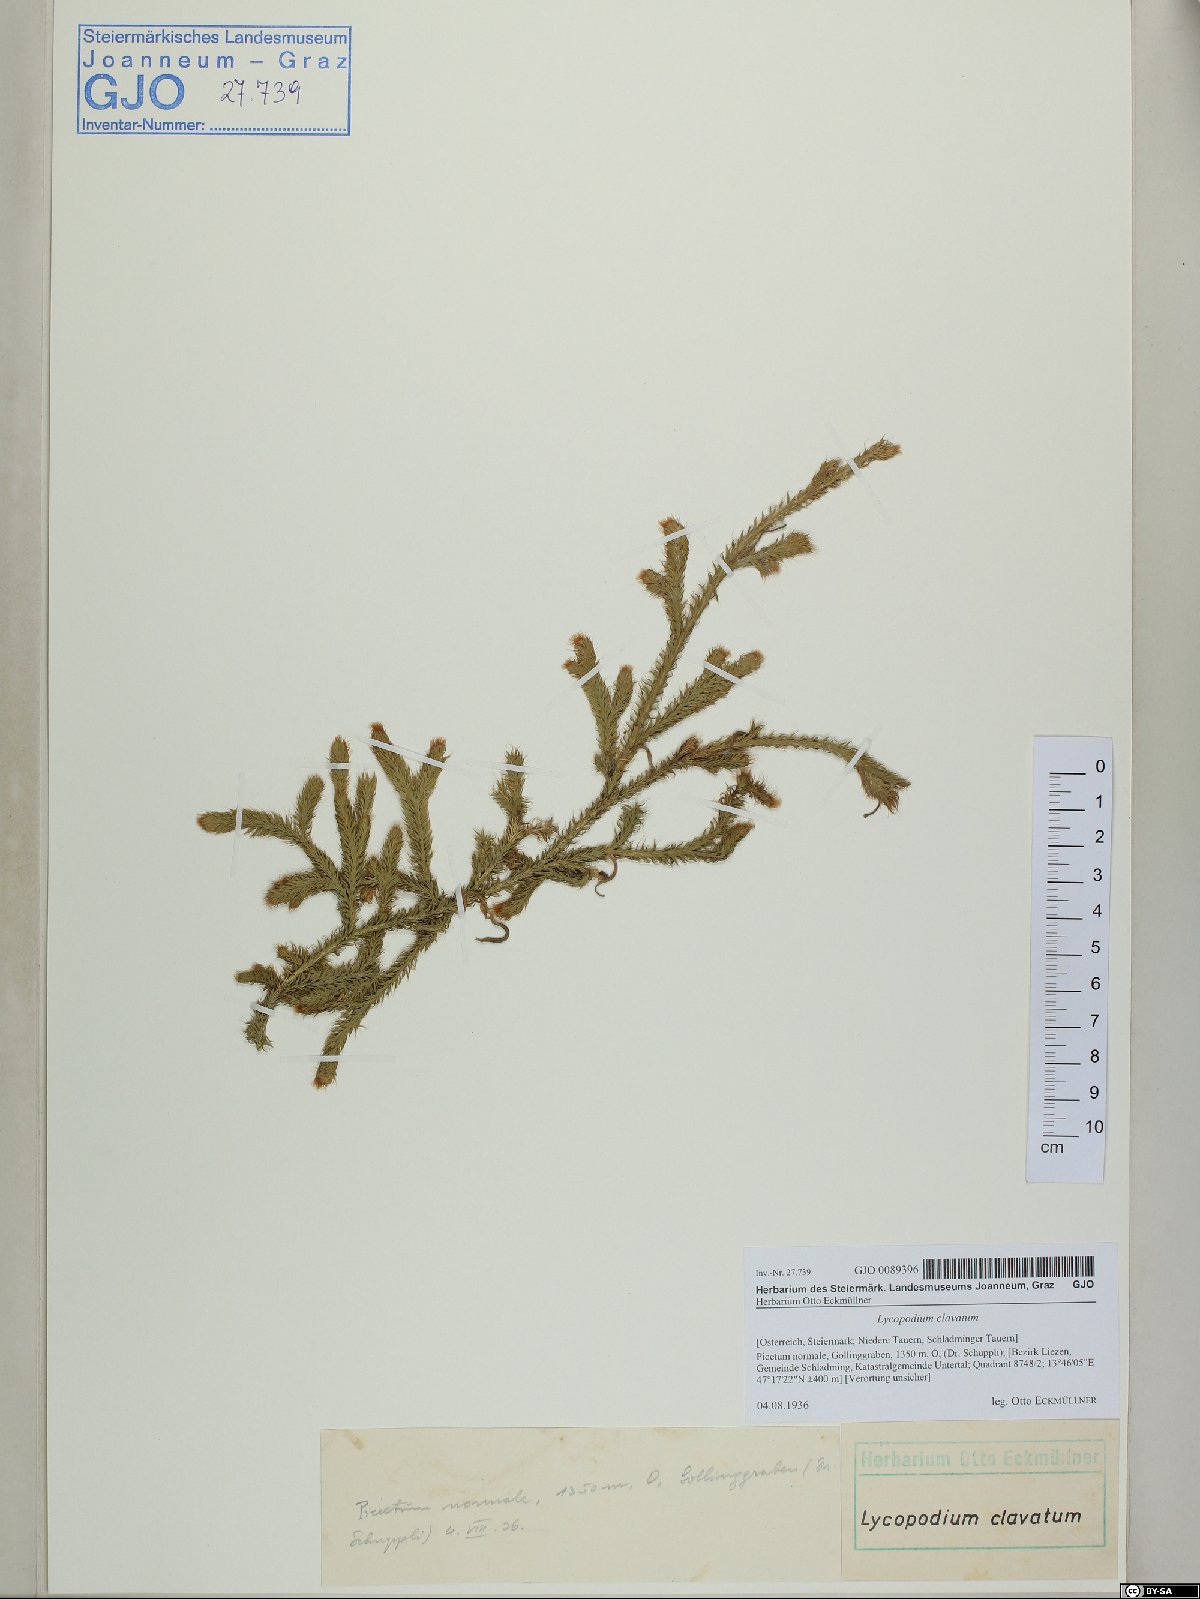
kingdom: Plantae
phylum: Tracheophyta
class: Lycopodiopsida
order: Lycopodiales
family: Lycopodiaceae
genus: Lycopodium
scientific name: Lycopodium clavatum
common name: Stag's-horn clubmoss
